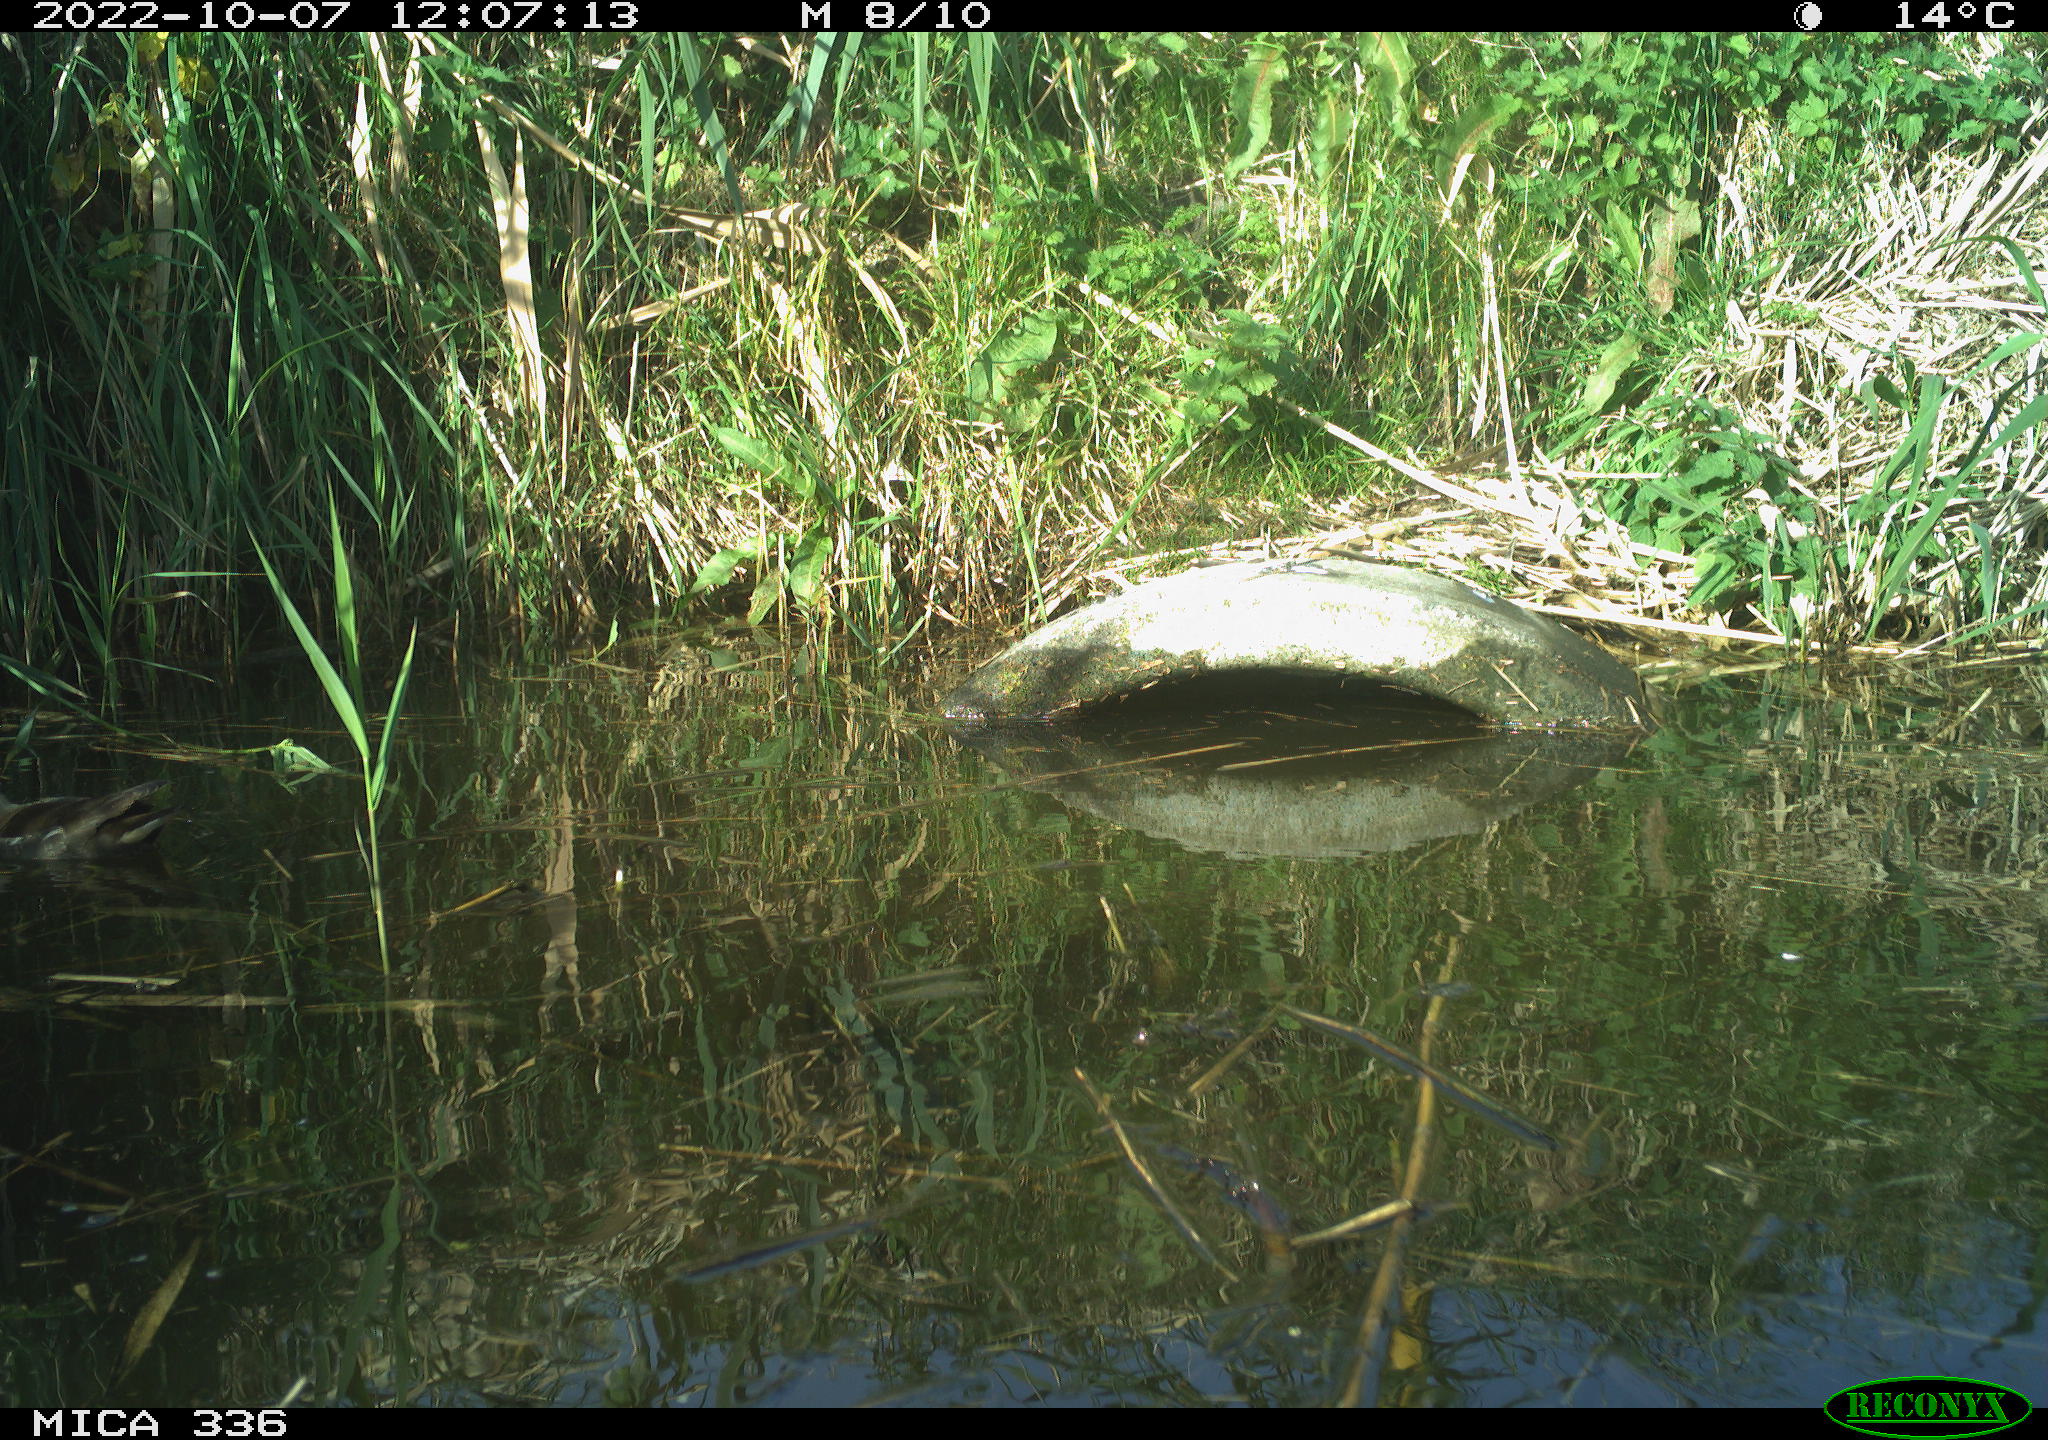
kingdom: Animalia
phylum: Chordata
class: Aves
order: Gruiformes
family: Rallidae
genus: Gallinula
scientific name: Gallinula chloropus
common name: Common moorhen
